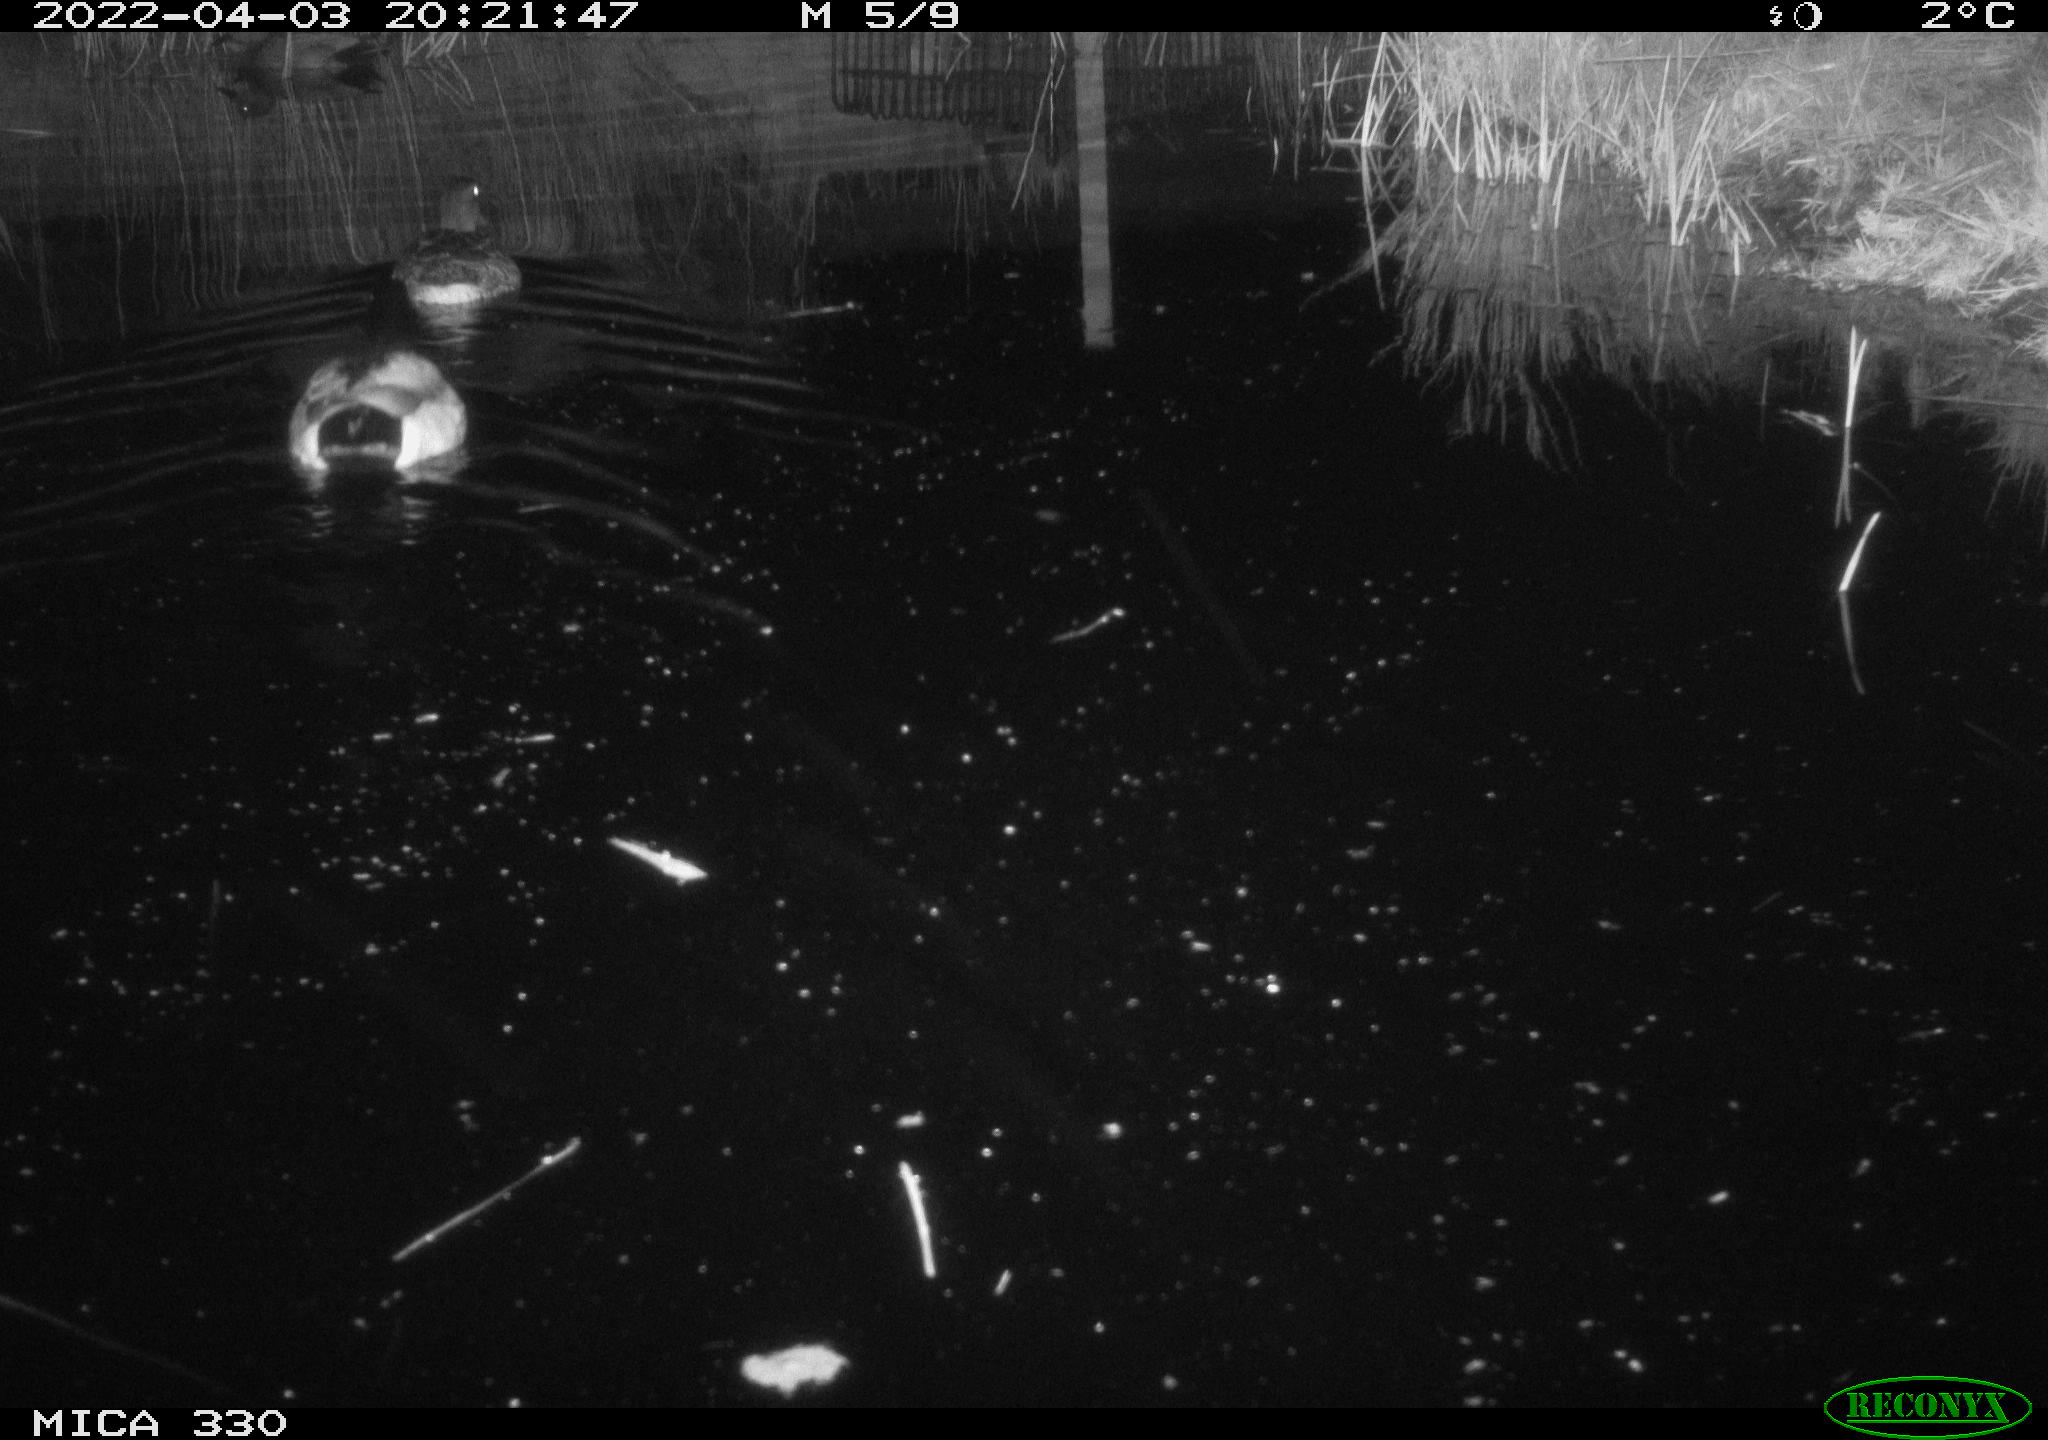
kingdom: Animalia
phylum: Chordata
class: Aves
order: Anseriformes
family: Anatidae
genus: Anas
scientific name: Anas platyrhynchos
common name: Mallard
